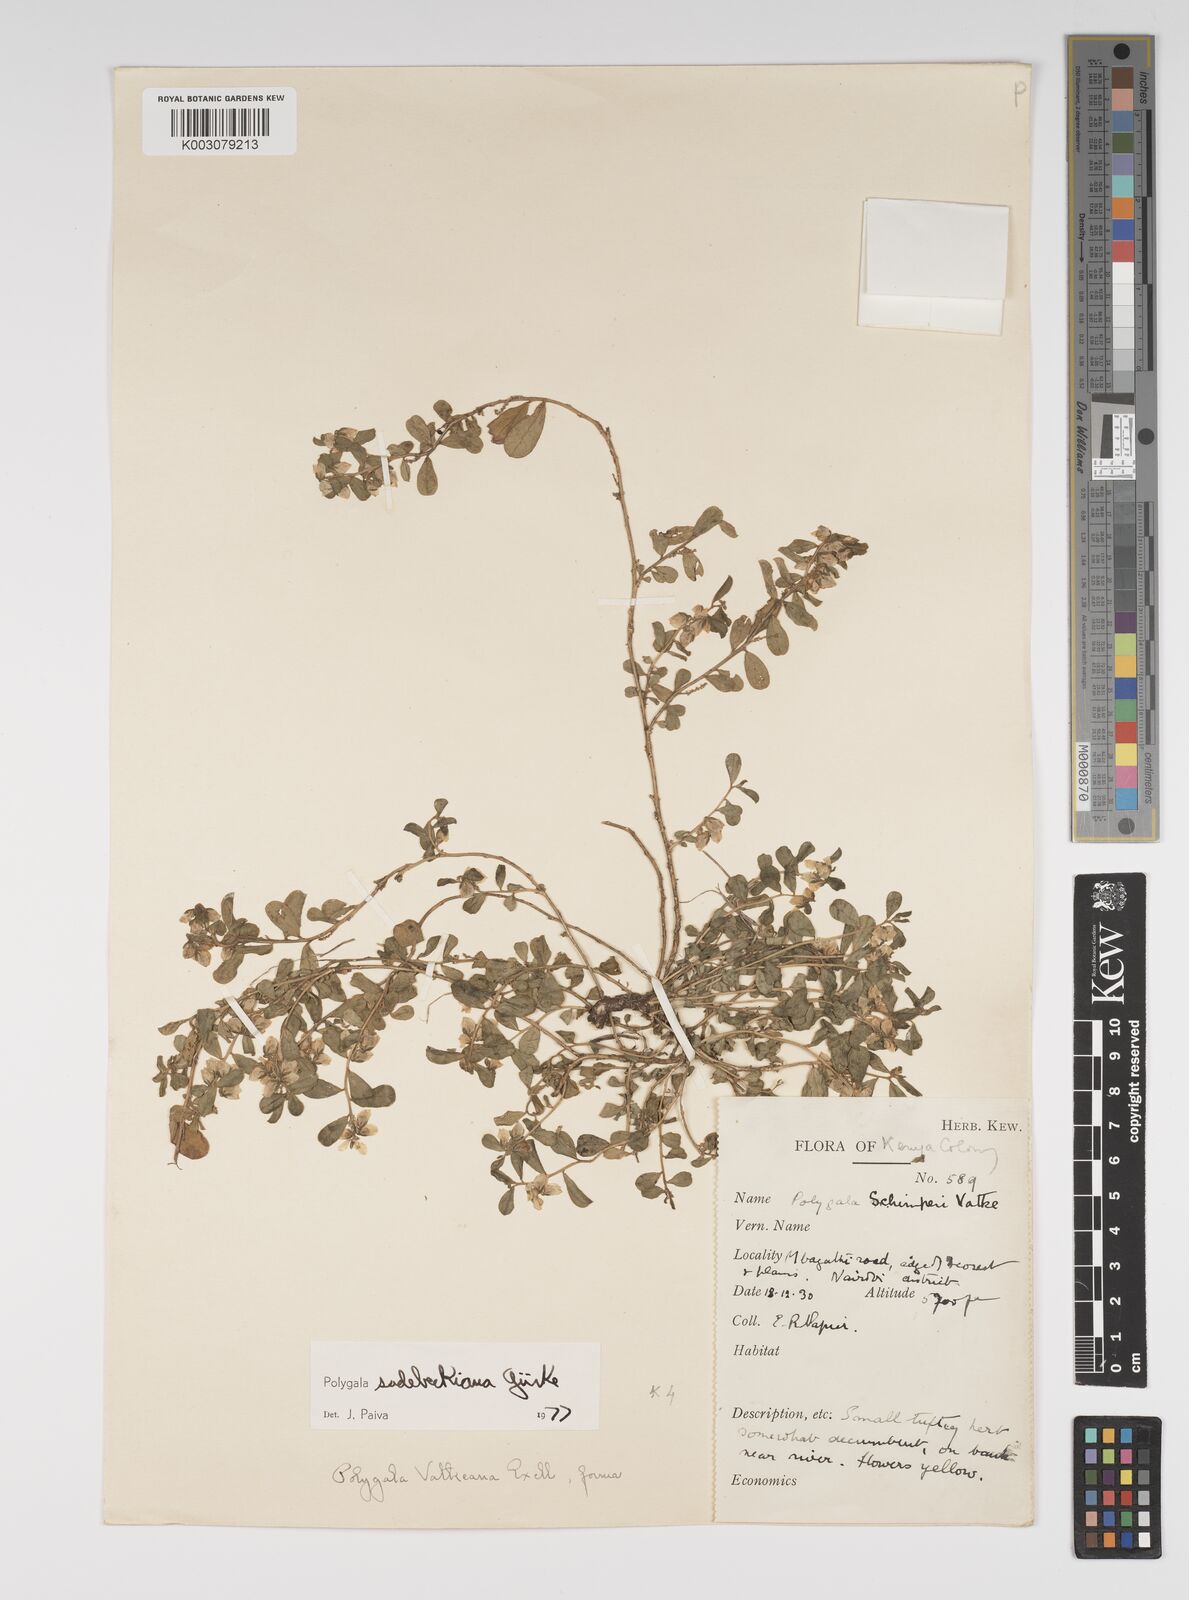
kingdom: Plantae
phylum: Tracheophyta
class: Magnoliopsida
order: Fabales
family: Polygalaceae
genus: Polygala
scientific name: Polygala sadebeckiana
